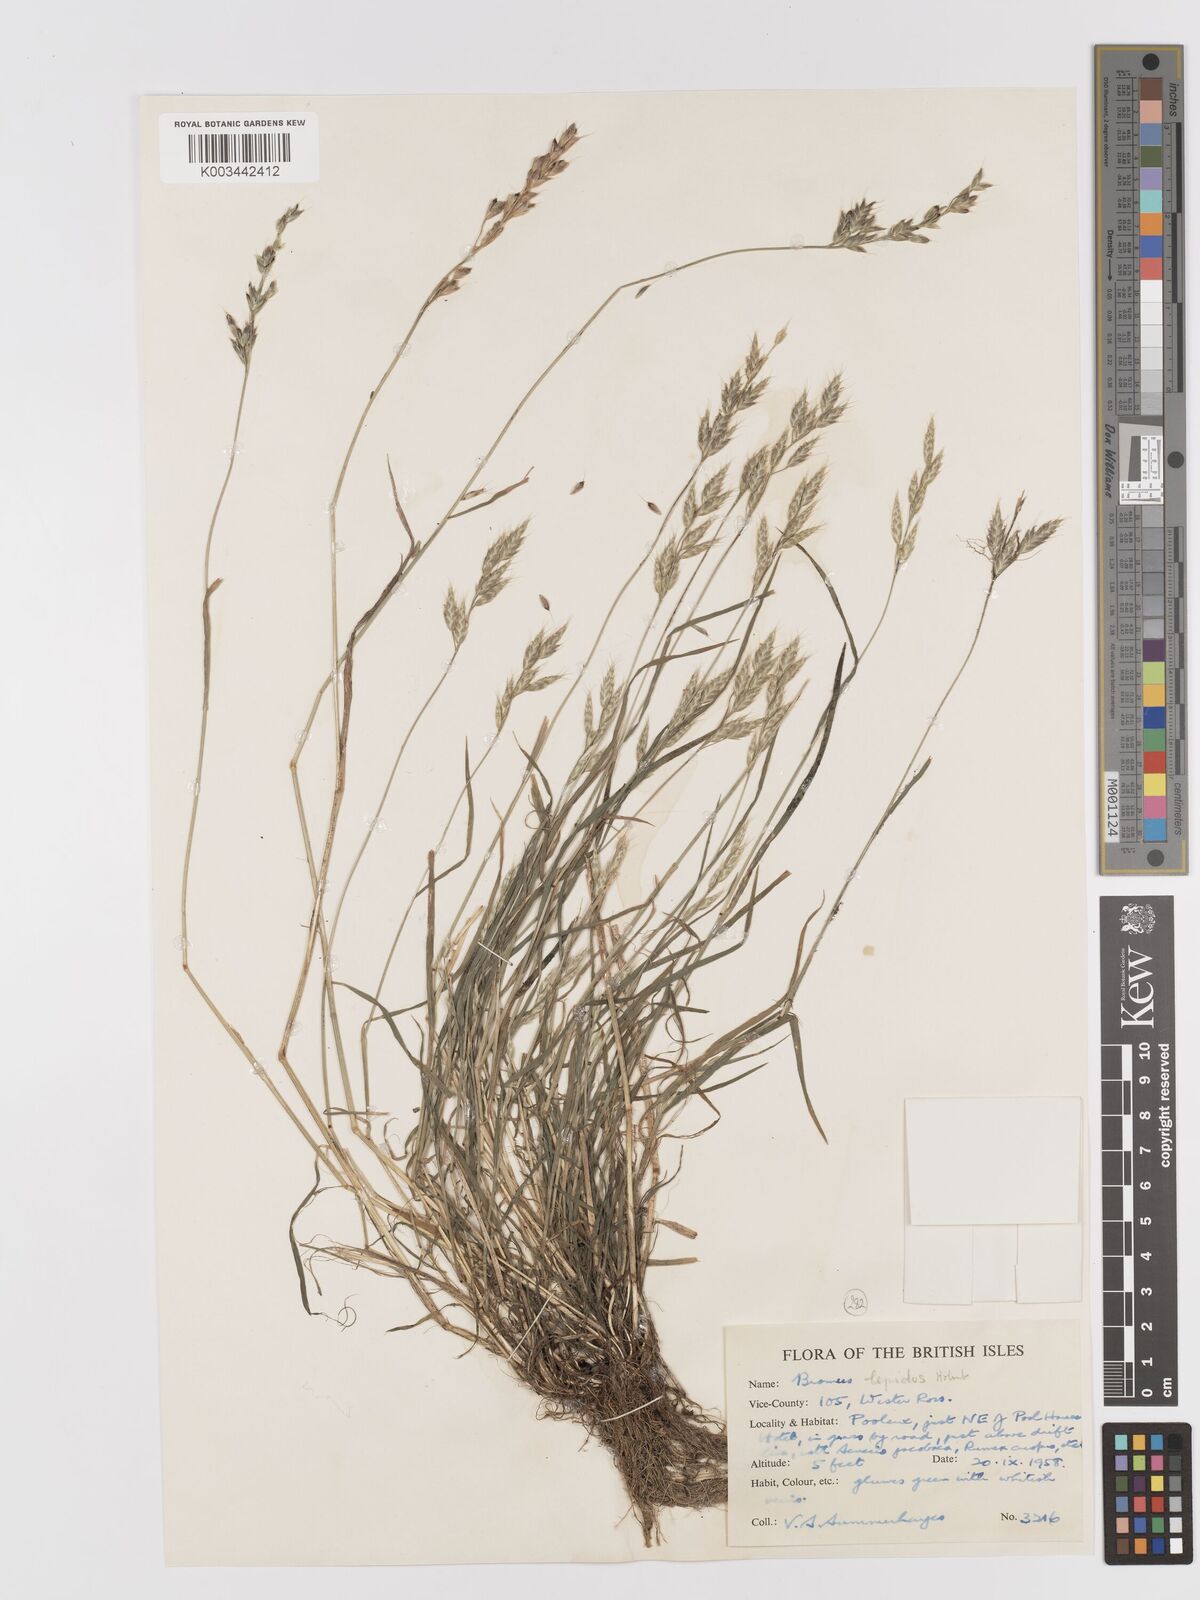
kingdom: Plantae
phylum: Tracheophyta
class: Liliopsida
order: Poales
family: Poaceae
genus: Bromus
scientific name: Bromus lepidus
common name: Slender soft-brome
